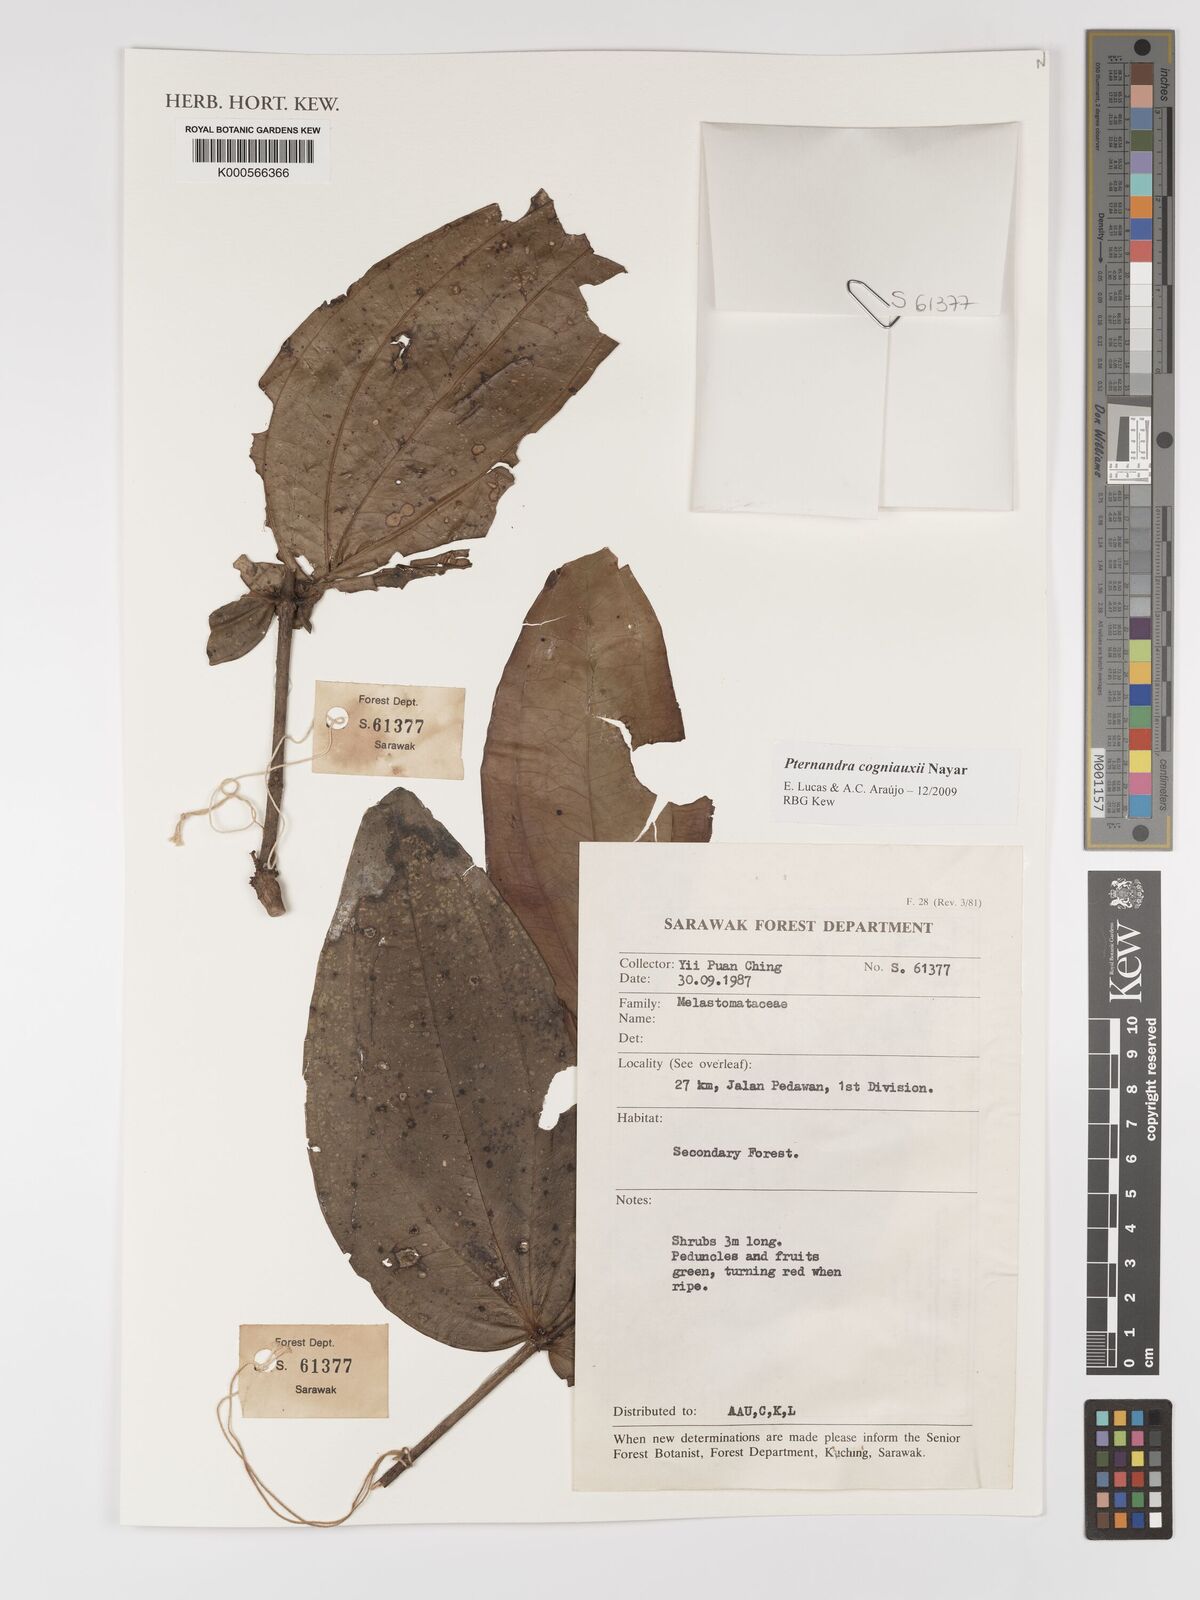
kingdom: Plantae
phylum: Tracheophyta
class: Magnoliopsida
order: Myrtales
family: Melastomataceae
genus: Pternandra
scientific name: Pternandra cogniauxii
